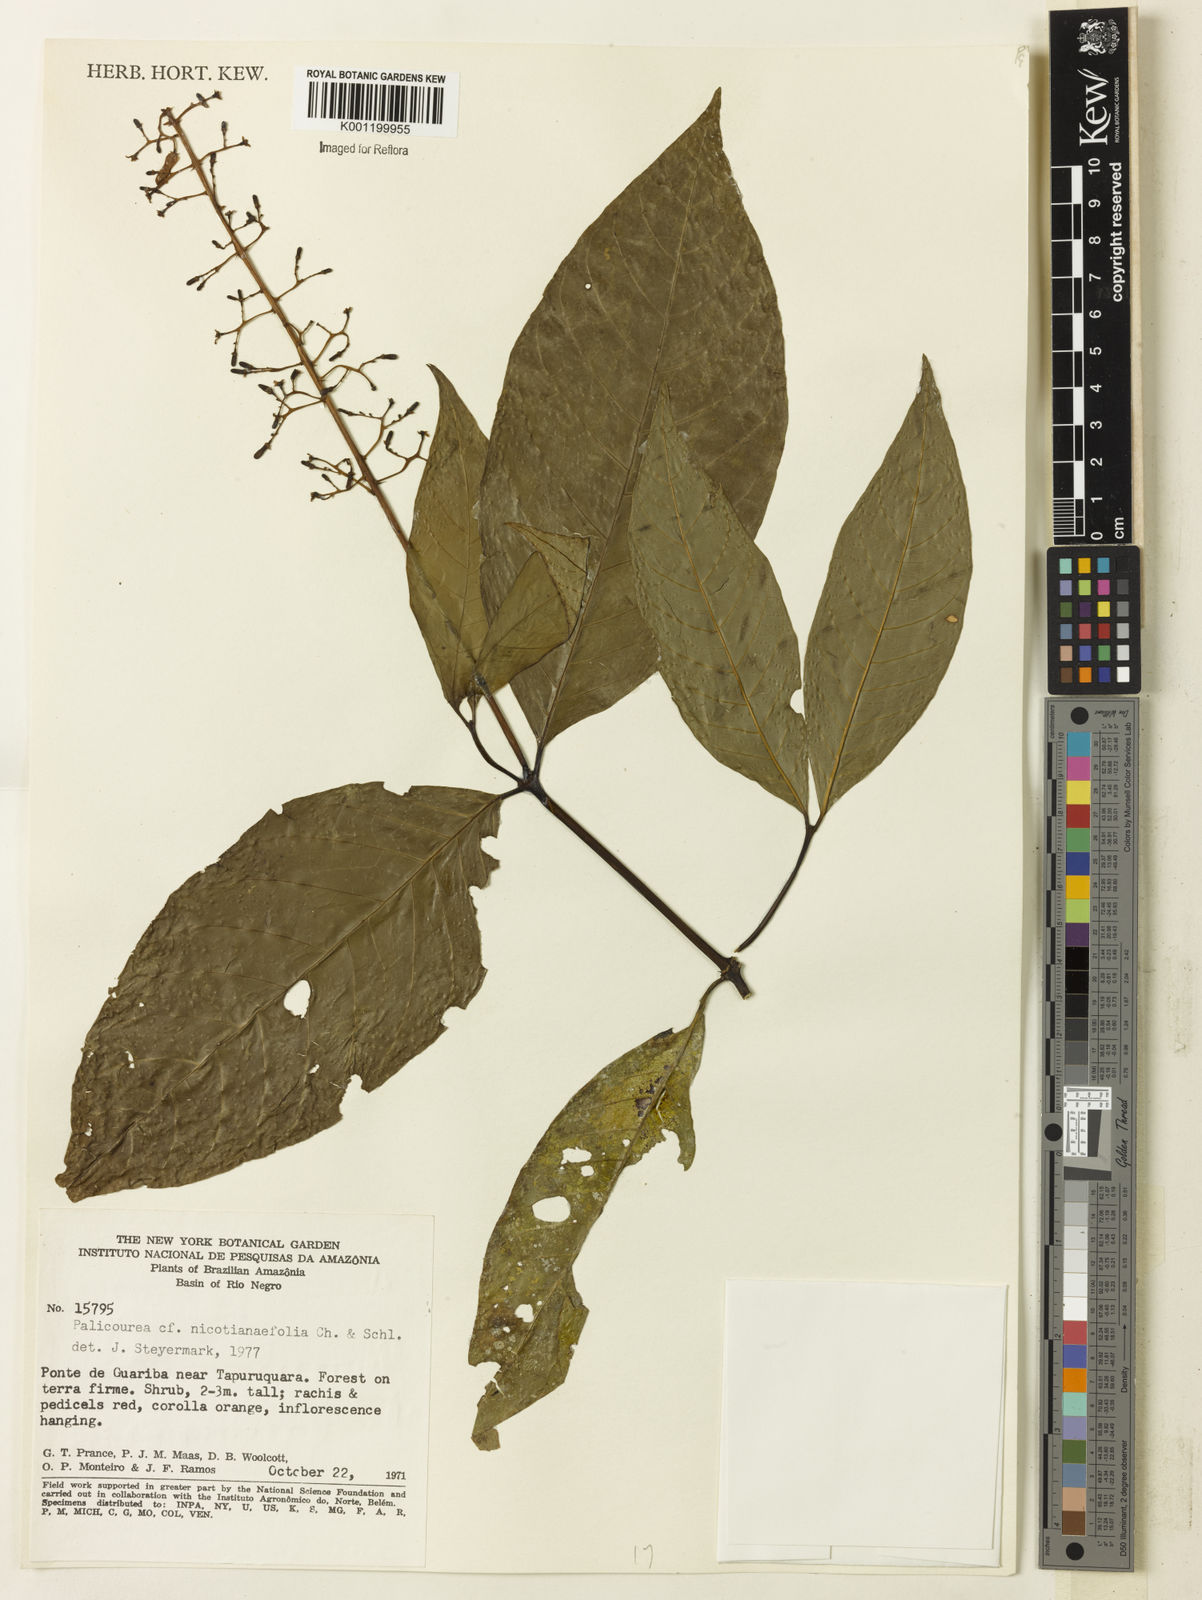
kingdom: Plantae
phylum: Tracheophyta
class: Magnoliopsida
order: Gentianales
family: Rubiaceae
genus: Palicourea
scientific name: Palicourea macrobotrys
